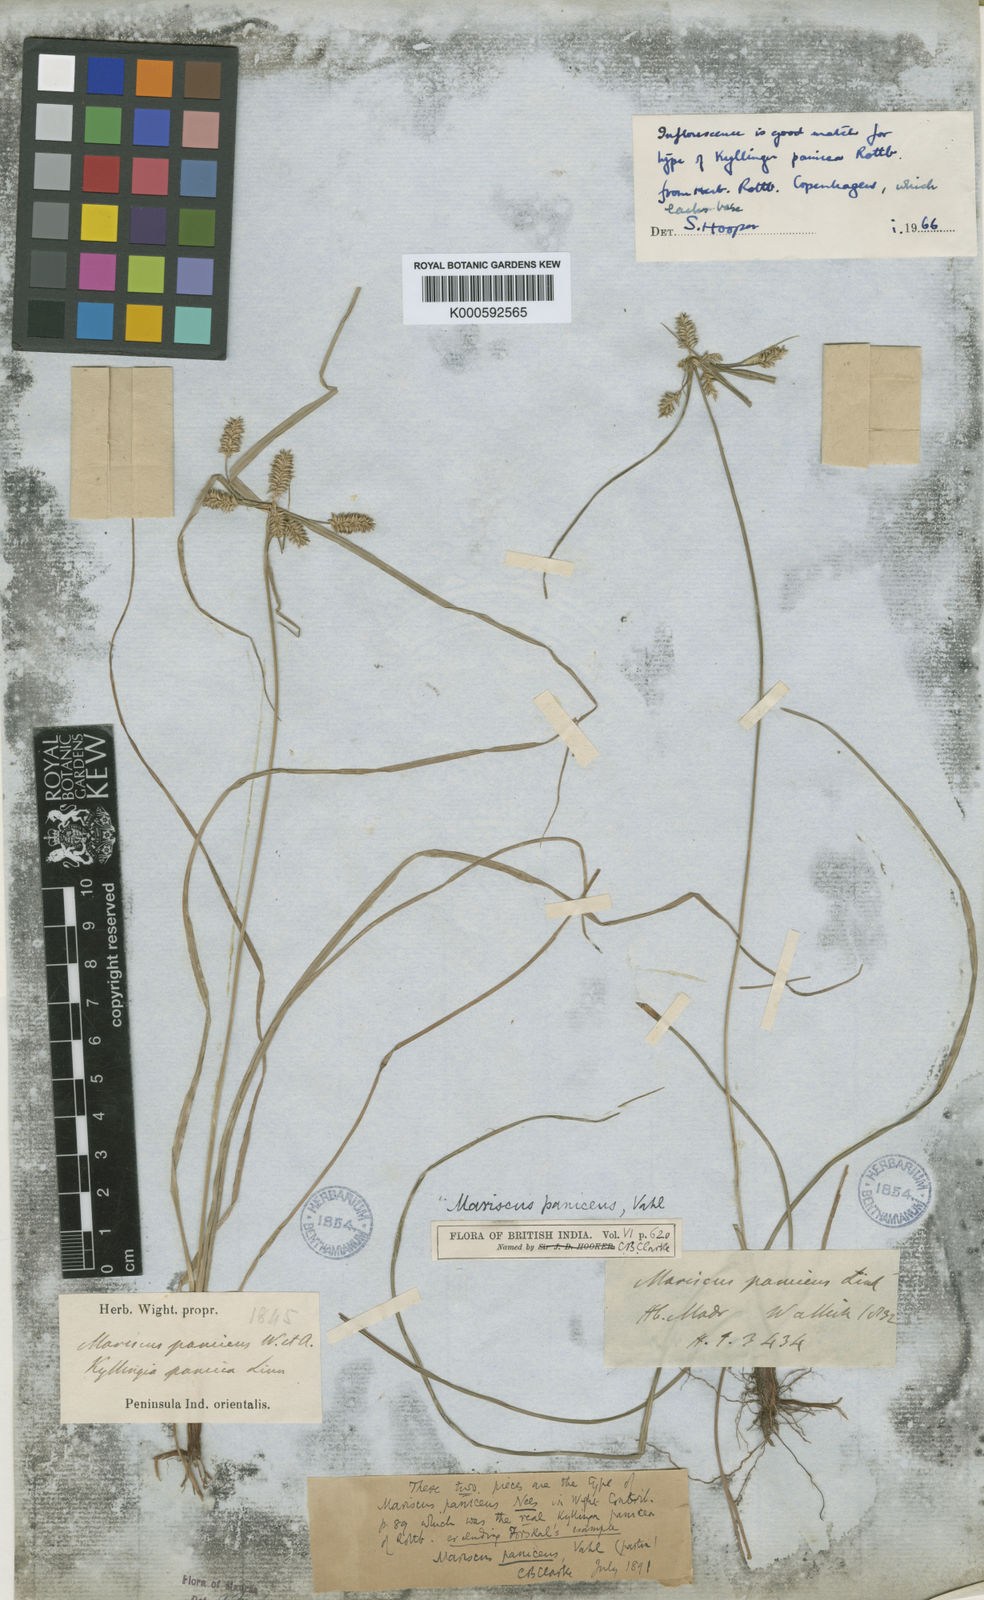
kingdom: Plantae
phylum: Tracheophyta
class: Liliopsida
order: Poales
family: Cyperaceae
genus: Cyperus
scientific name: Cyperus paniceus
